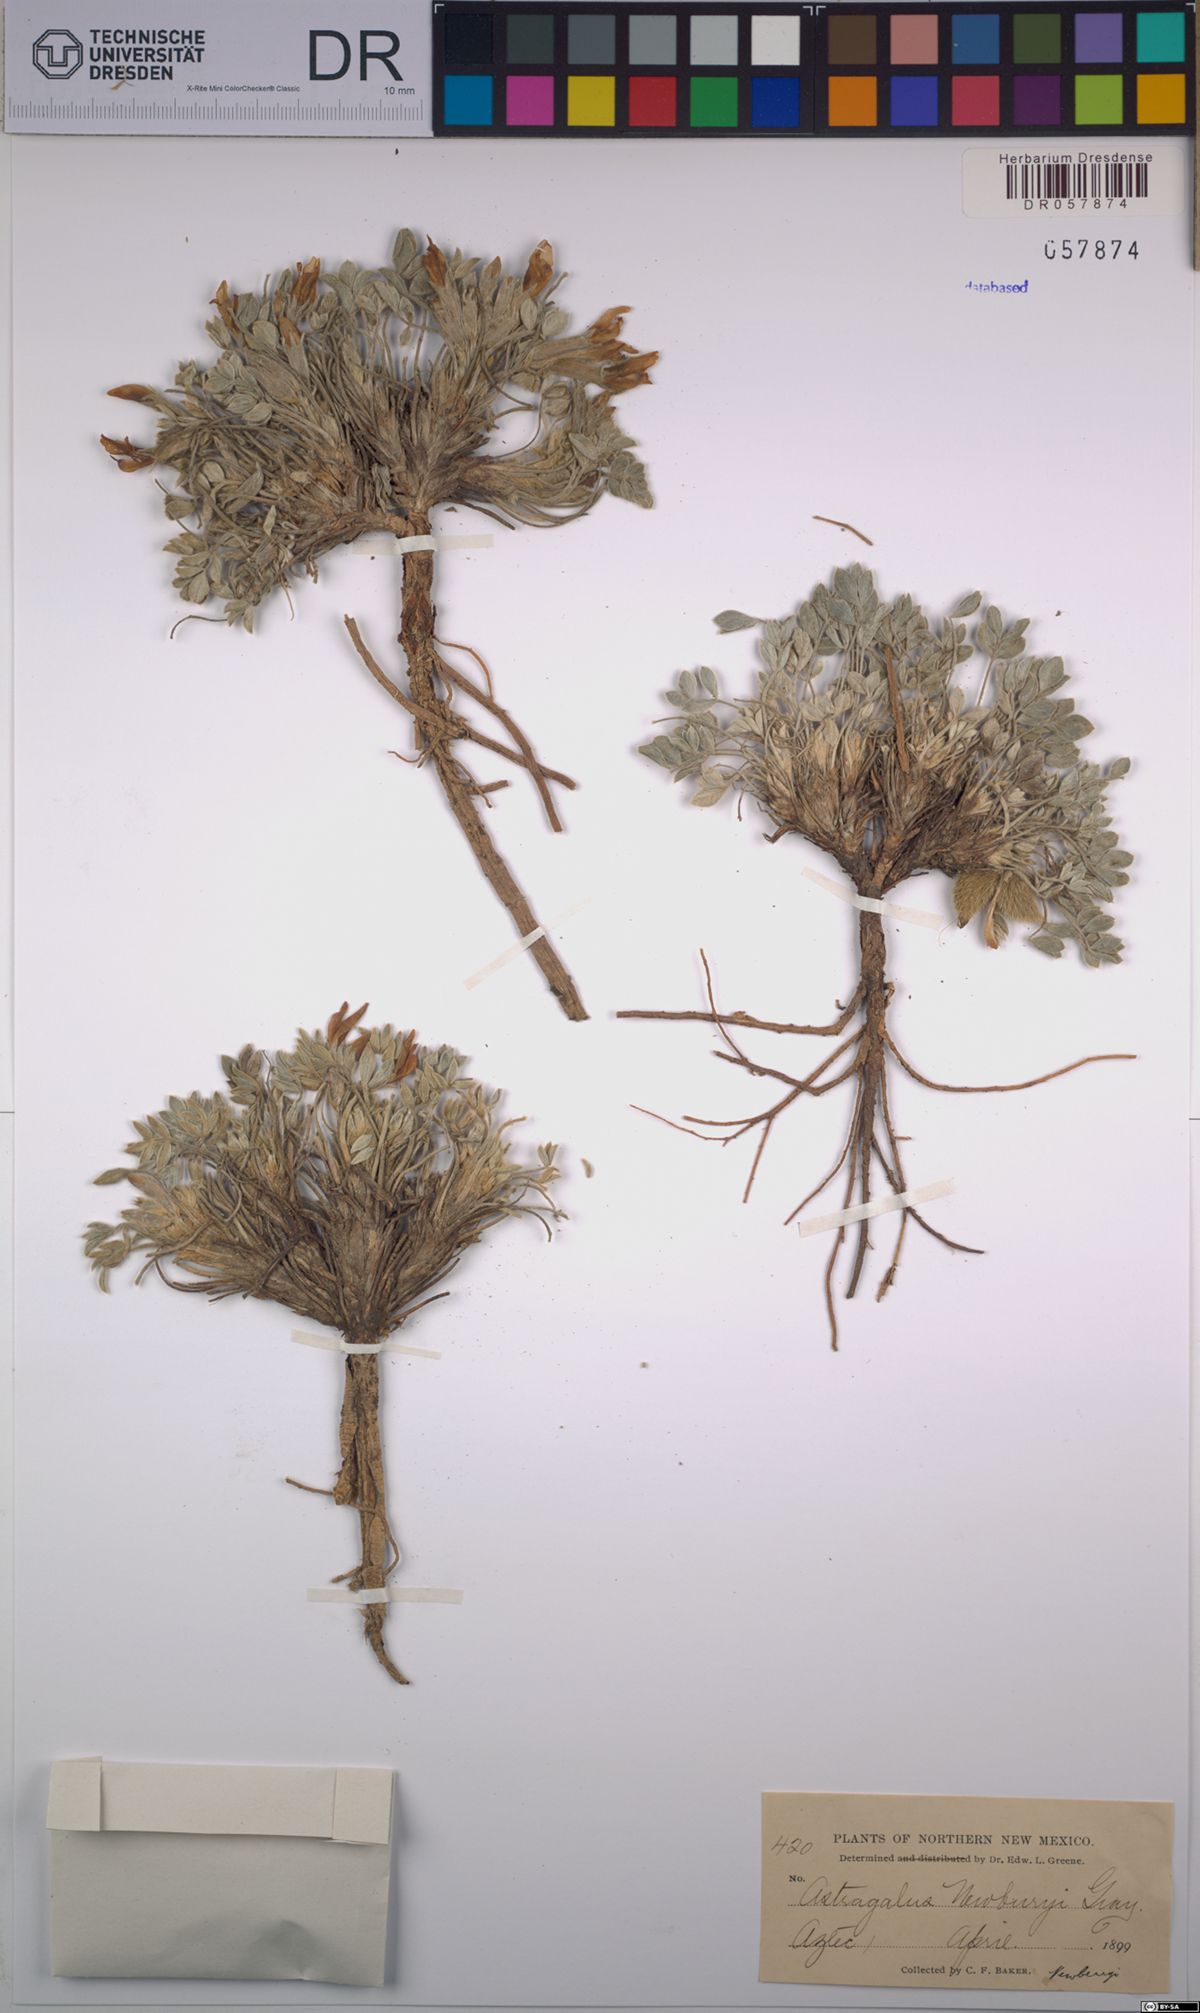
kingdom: Plantae
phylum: Tracheophyta
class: Magnoliopsida
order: Fabales
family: Fabaceae
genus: Astragalus
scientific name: Astragalus newberryi
